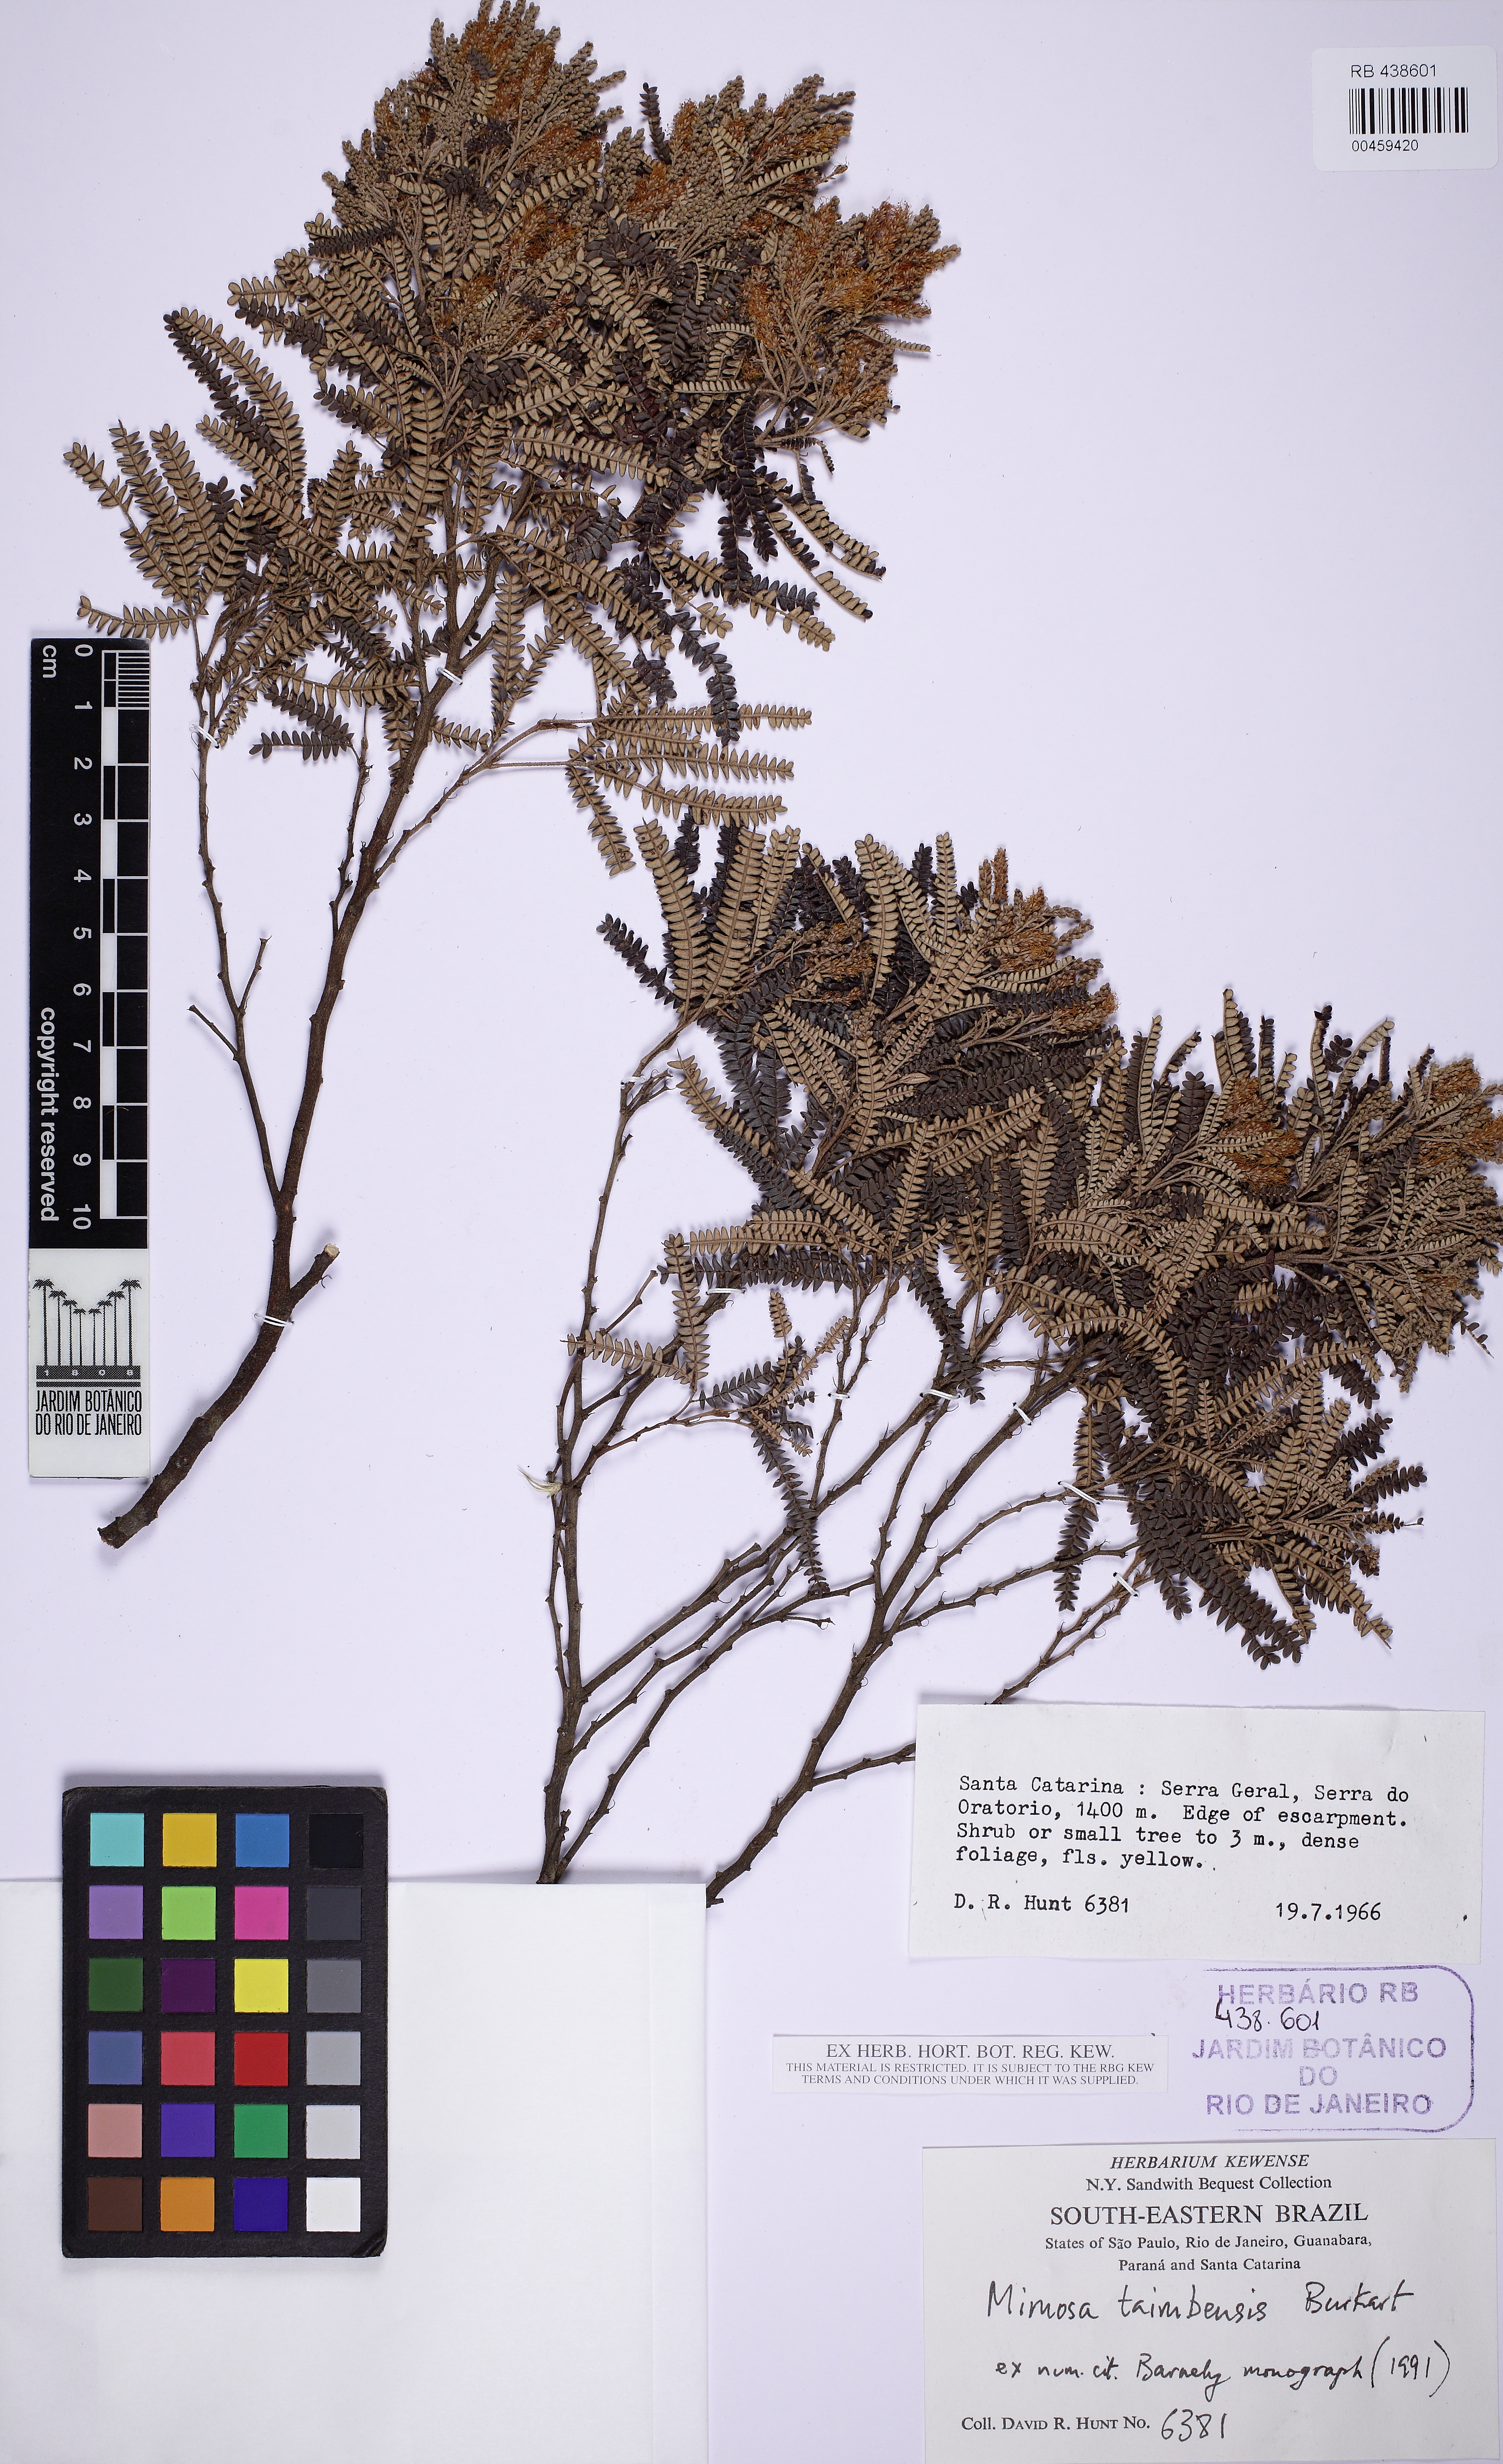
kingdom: Plantae
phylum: Tracheophyta
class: Magnoliopsida
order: Fabales
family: Fabaceae
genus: Mimosa
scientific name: Mimosa taimbensis
